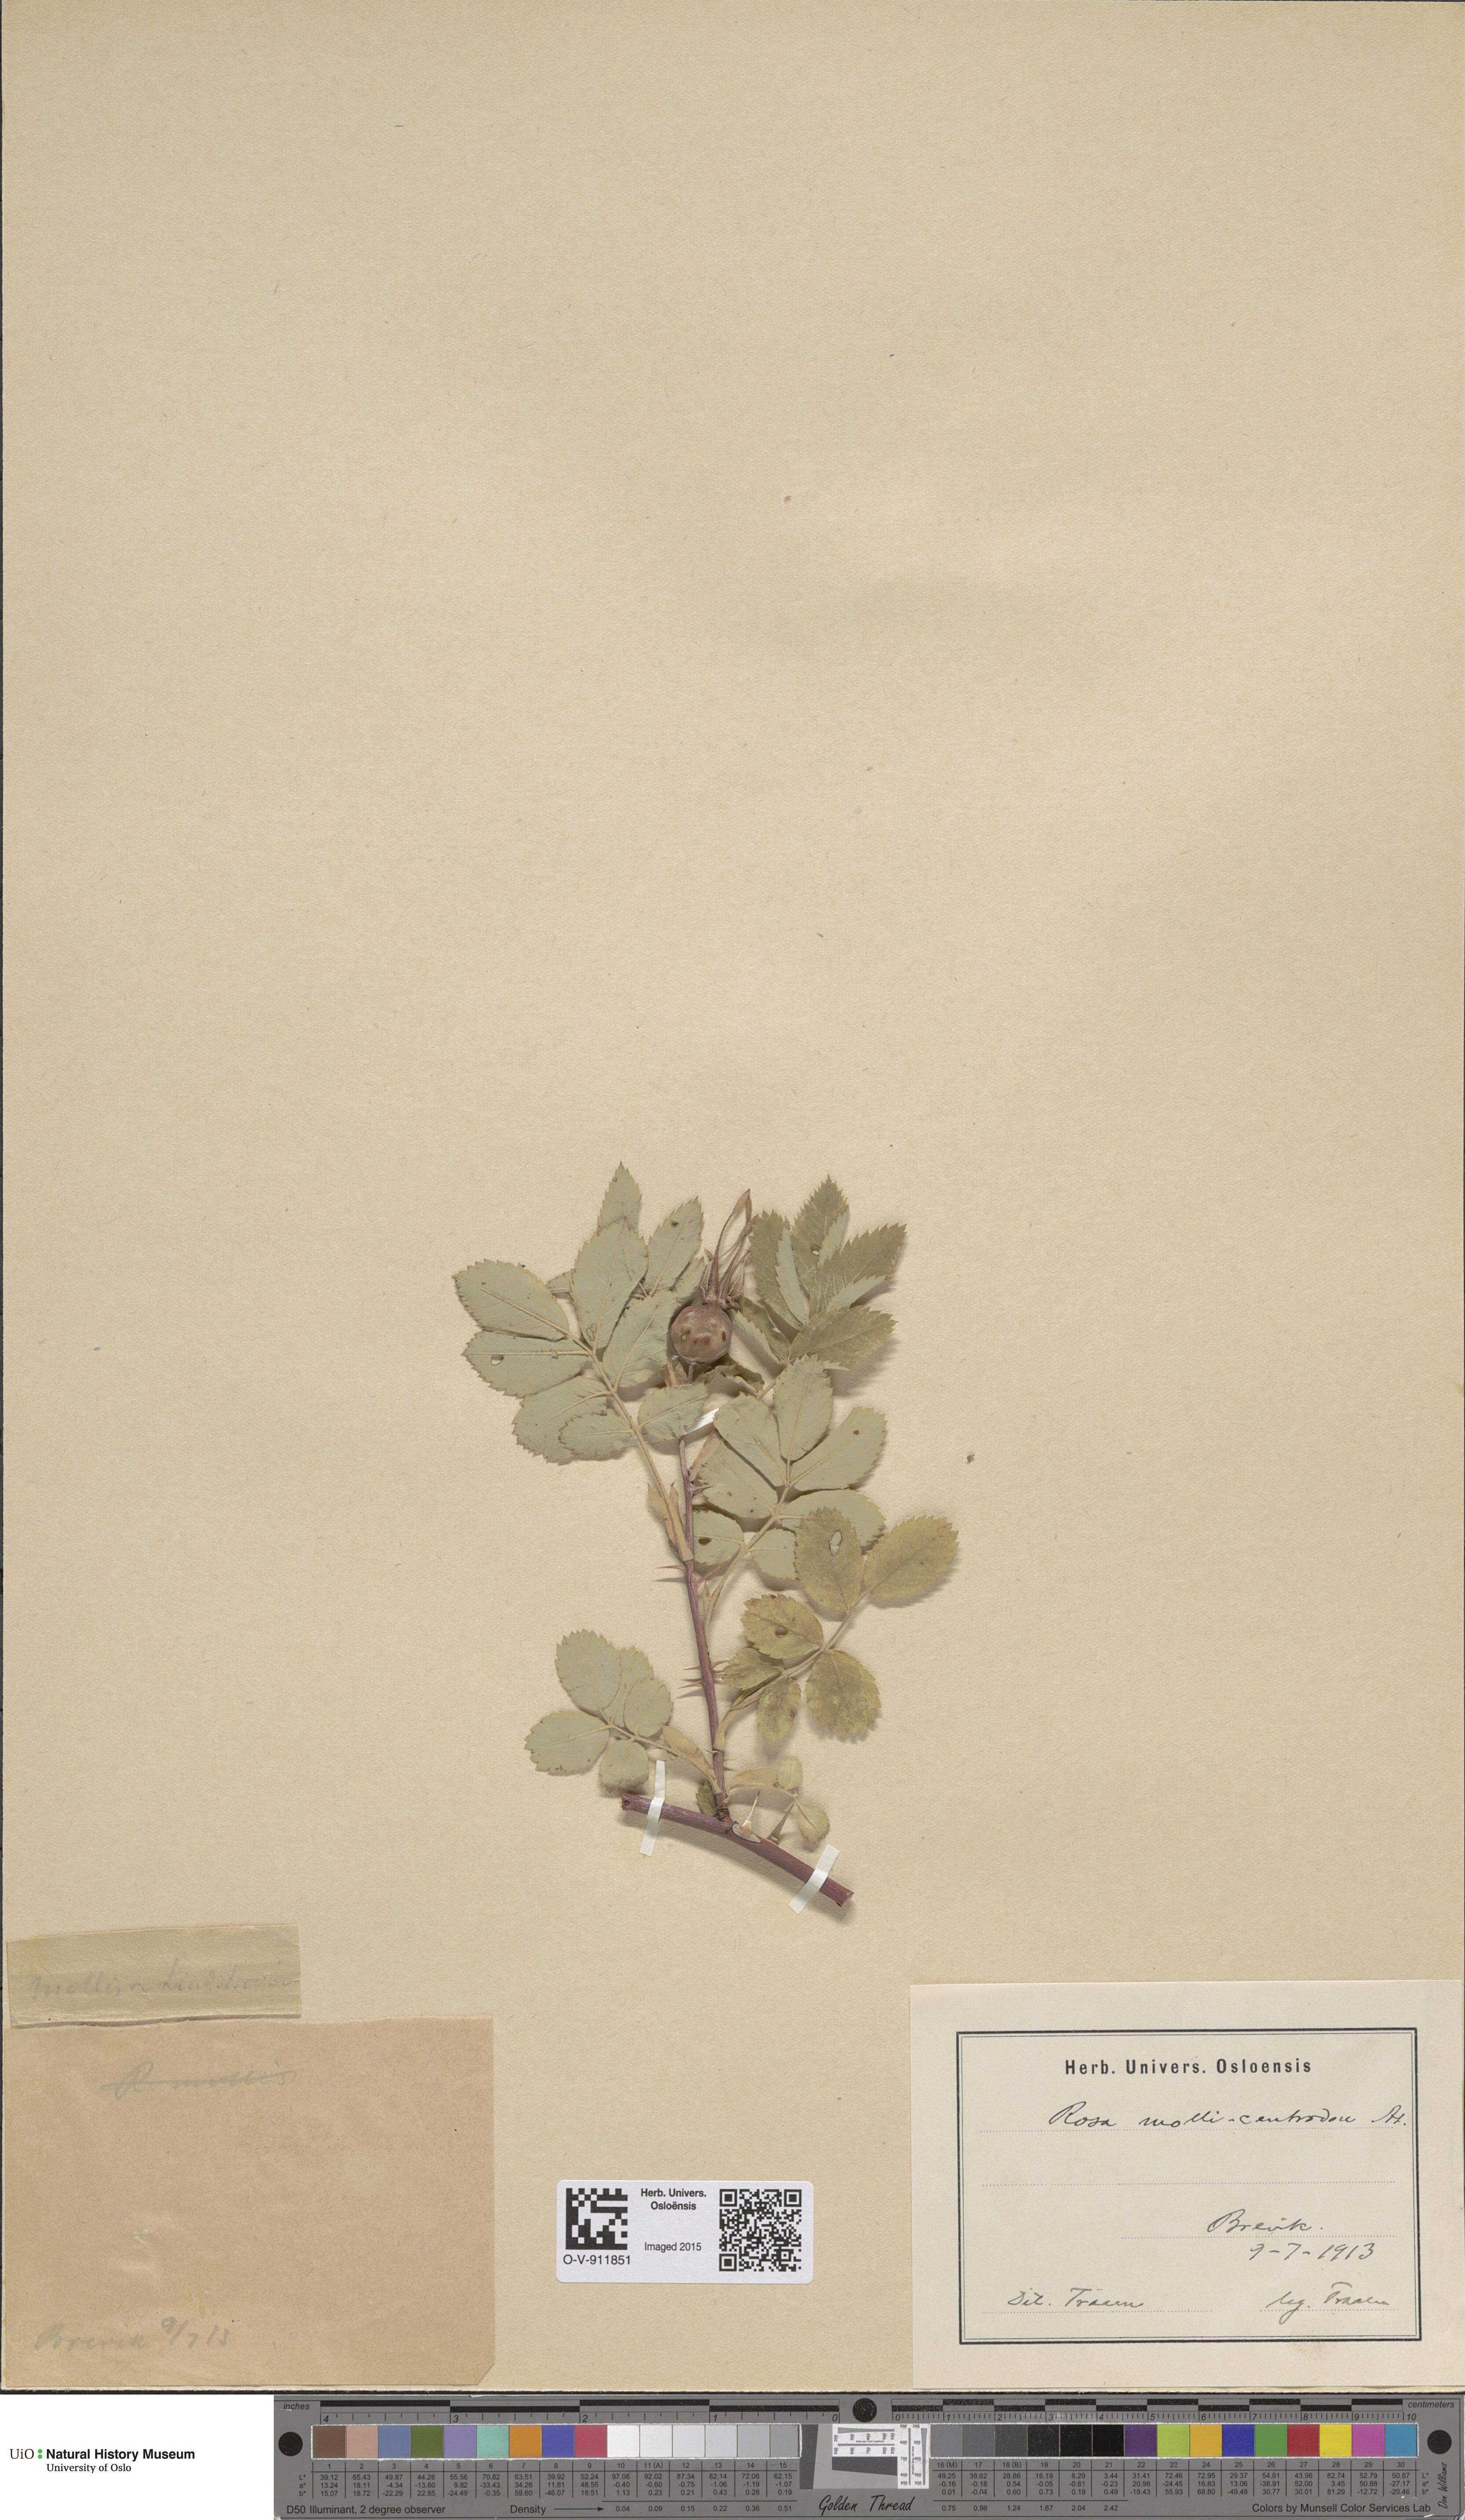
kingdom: Plantae
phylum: Tracheophyta
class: Magnoliopsida
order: Rosales
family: Rosaceae
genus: Rosa
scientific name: Rosa
